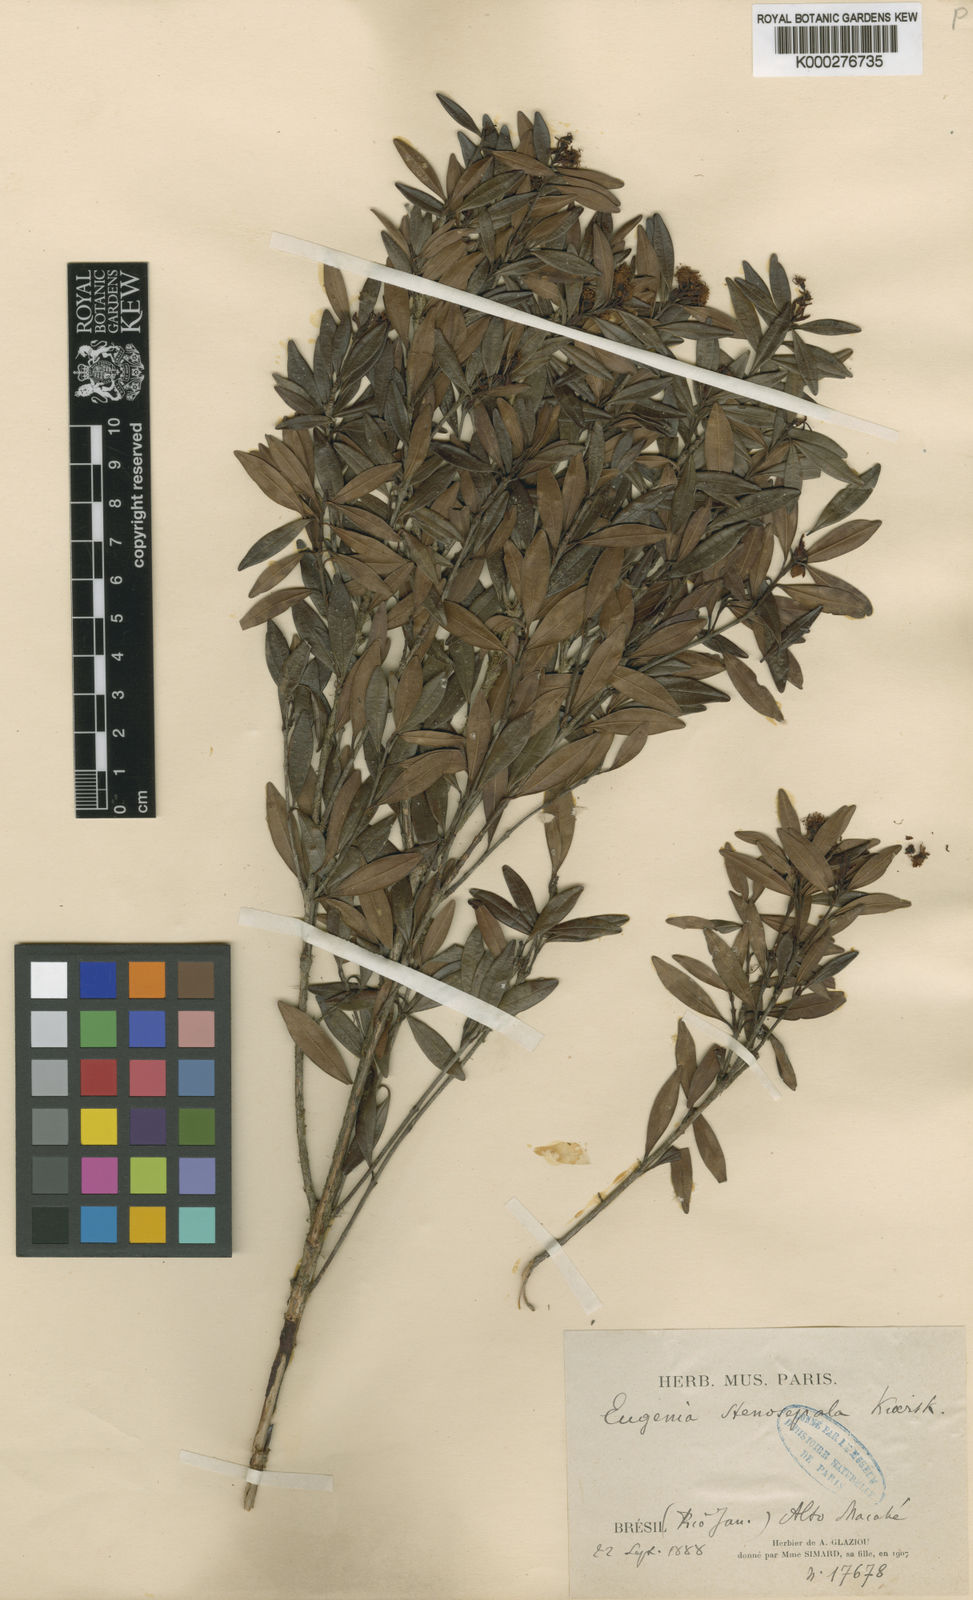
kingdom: Plantae
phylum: Tracheophyta
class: Magnoliopsida
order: Myrtales
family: Myrtaceae
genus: Eugenia
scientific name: Eugenia stenosepala
